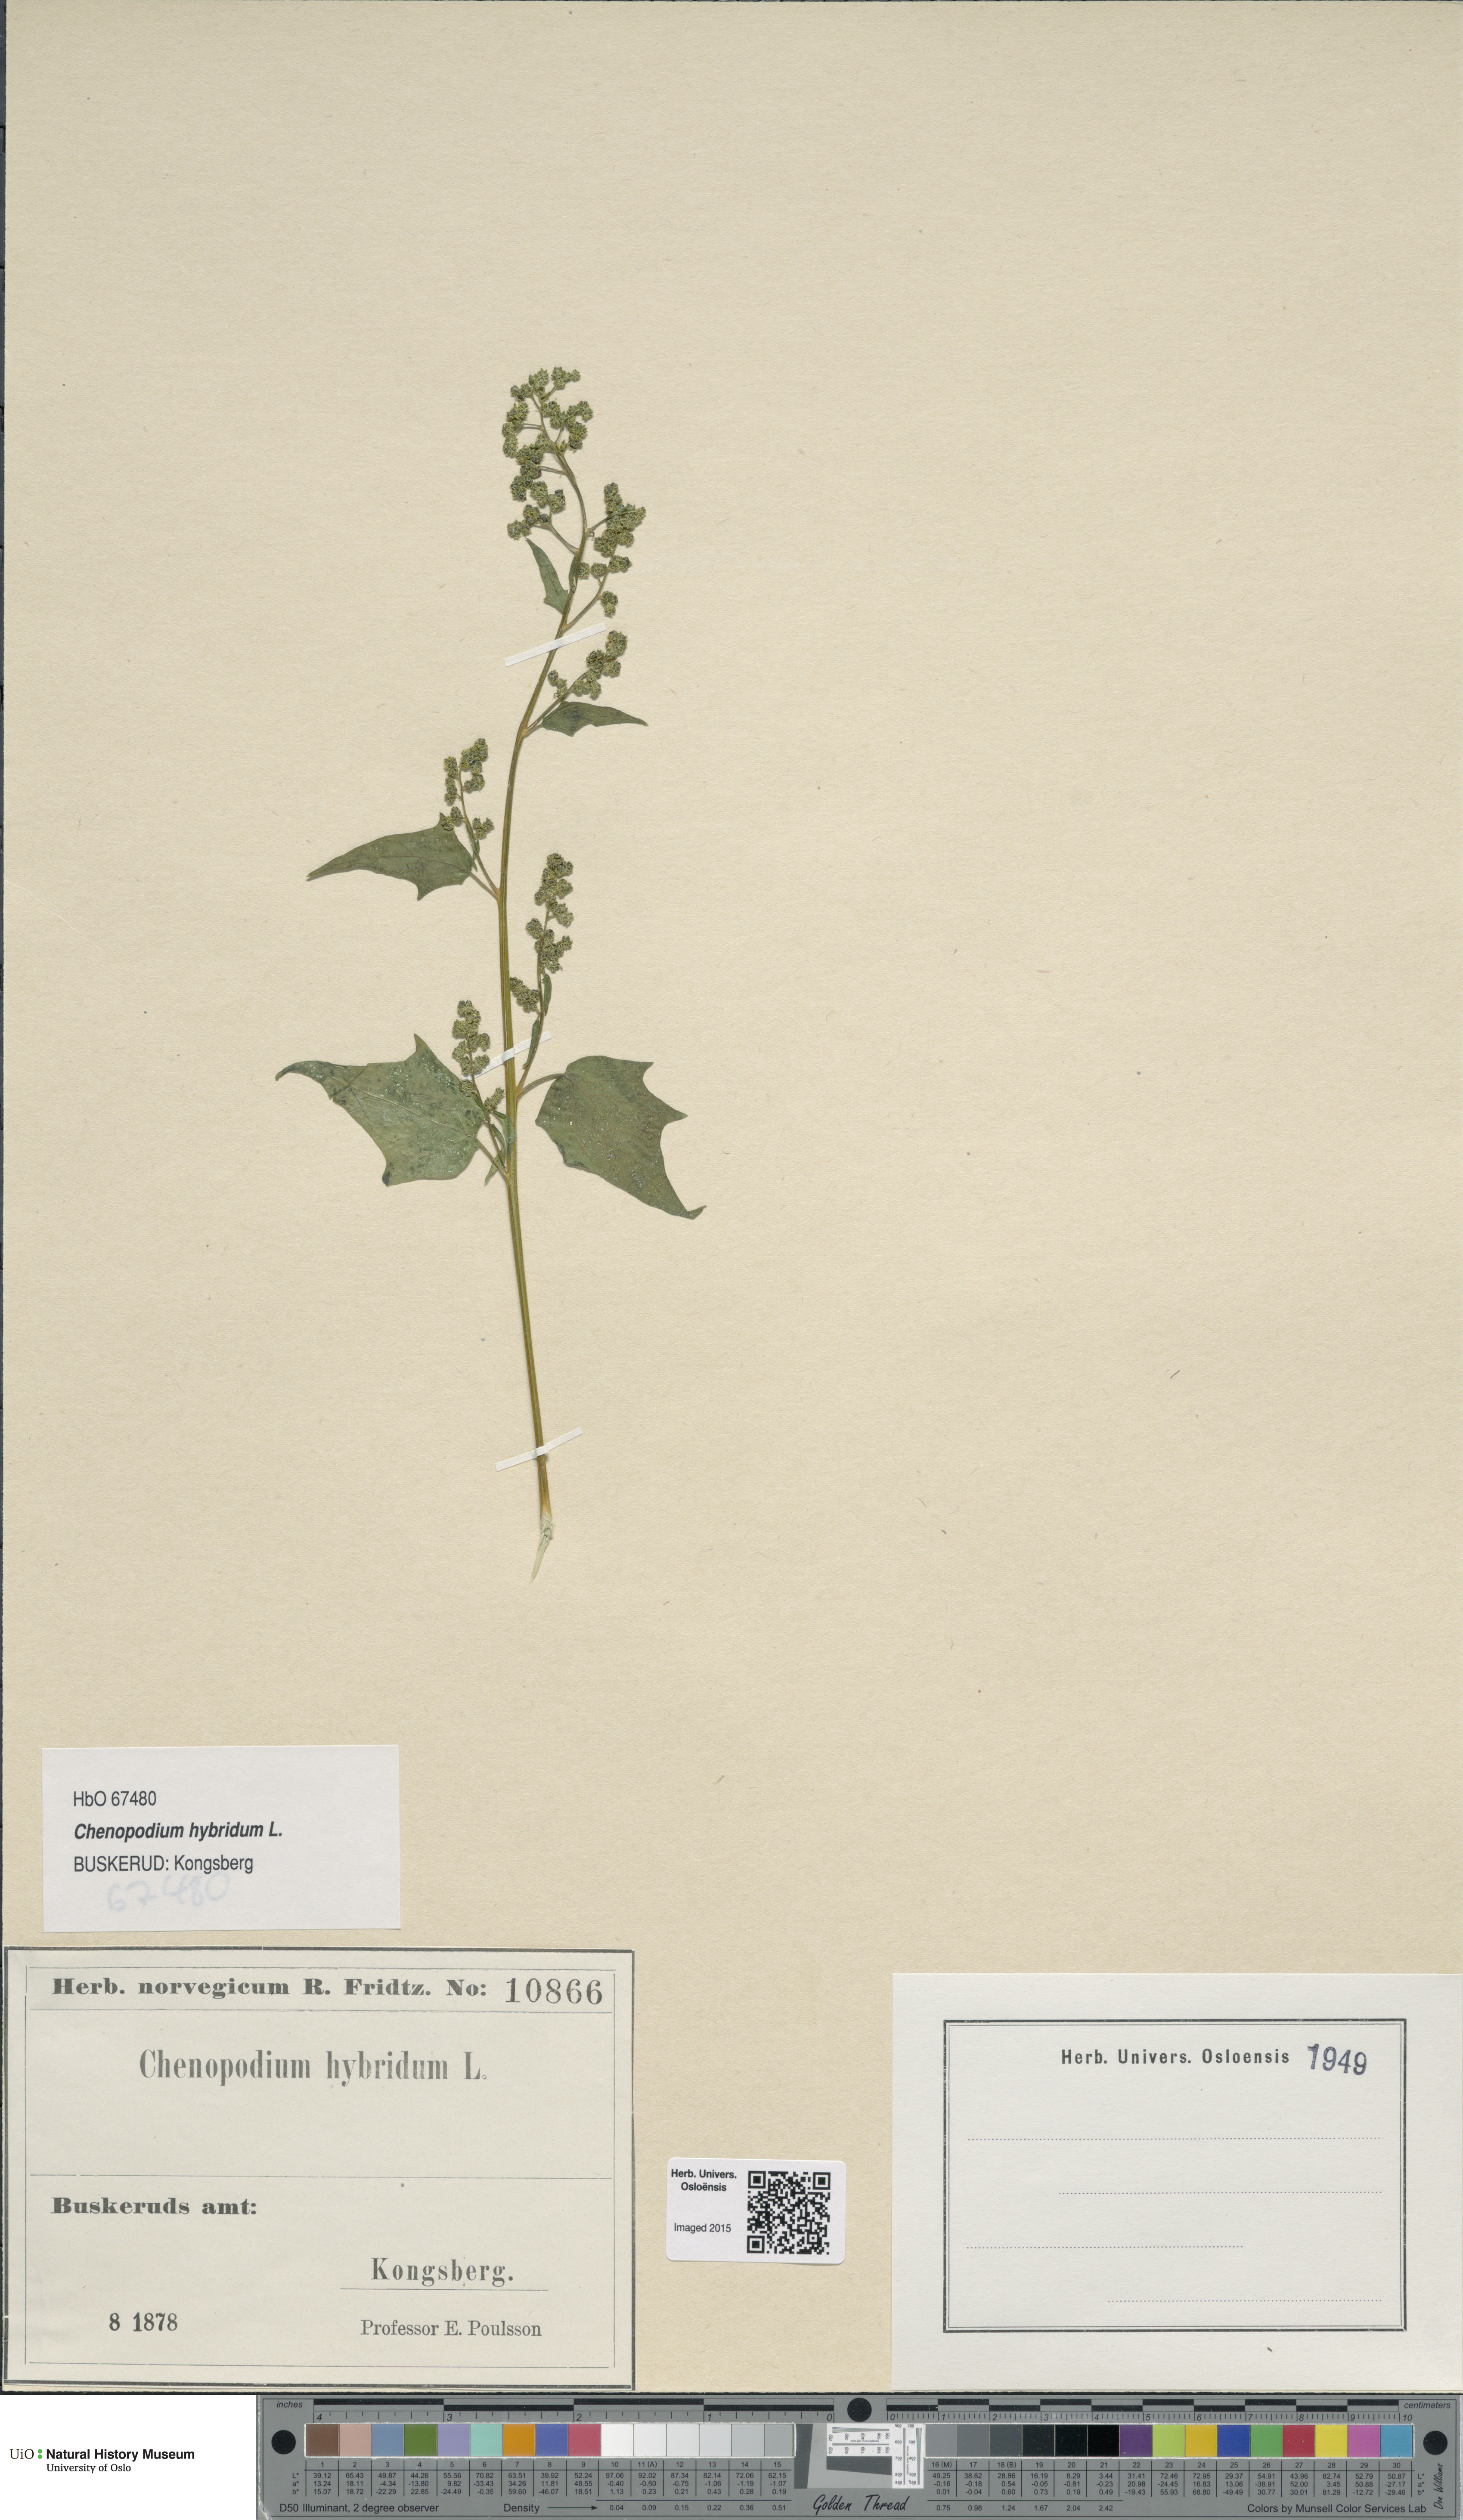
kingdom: Plantae
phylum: Tracheophyta
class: Magnoliopsida
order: Caryophyllales
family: Amaranthaceae
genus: Chenopodiastrum
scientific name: Chenopodiastrum hybridum
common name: Mapleleaf goosefoot
